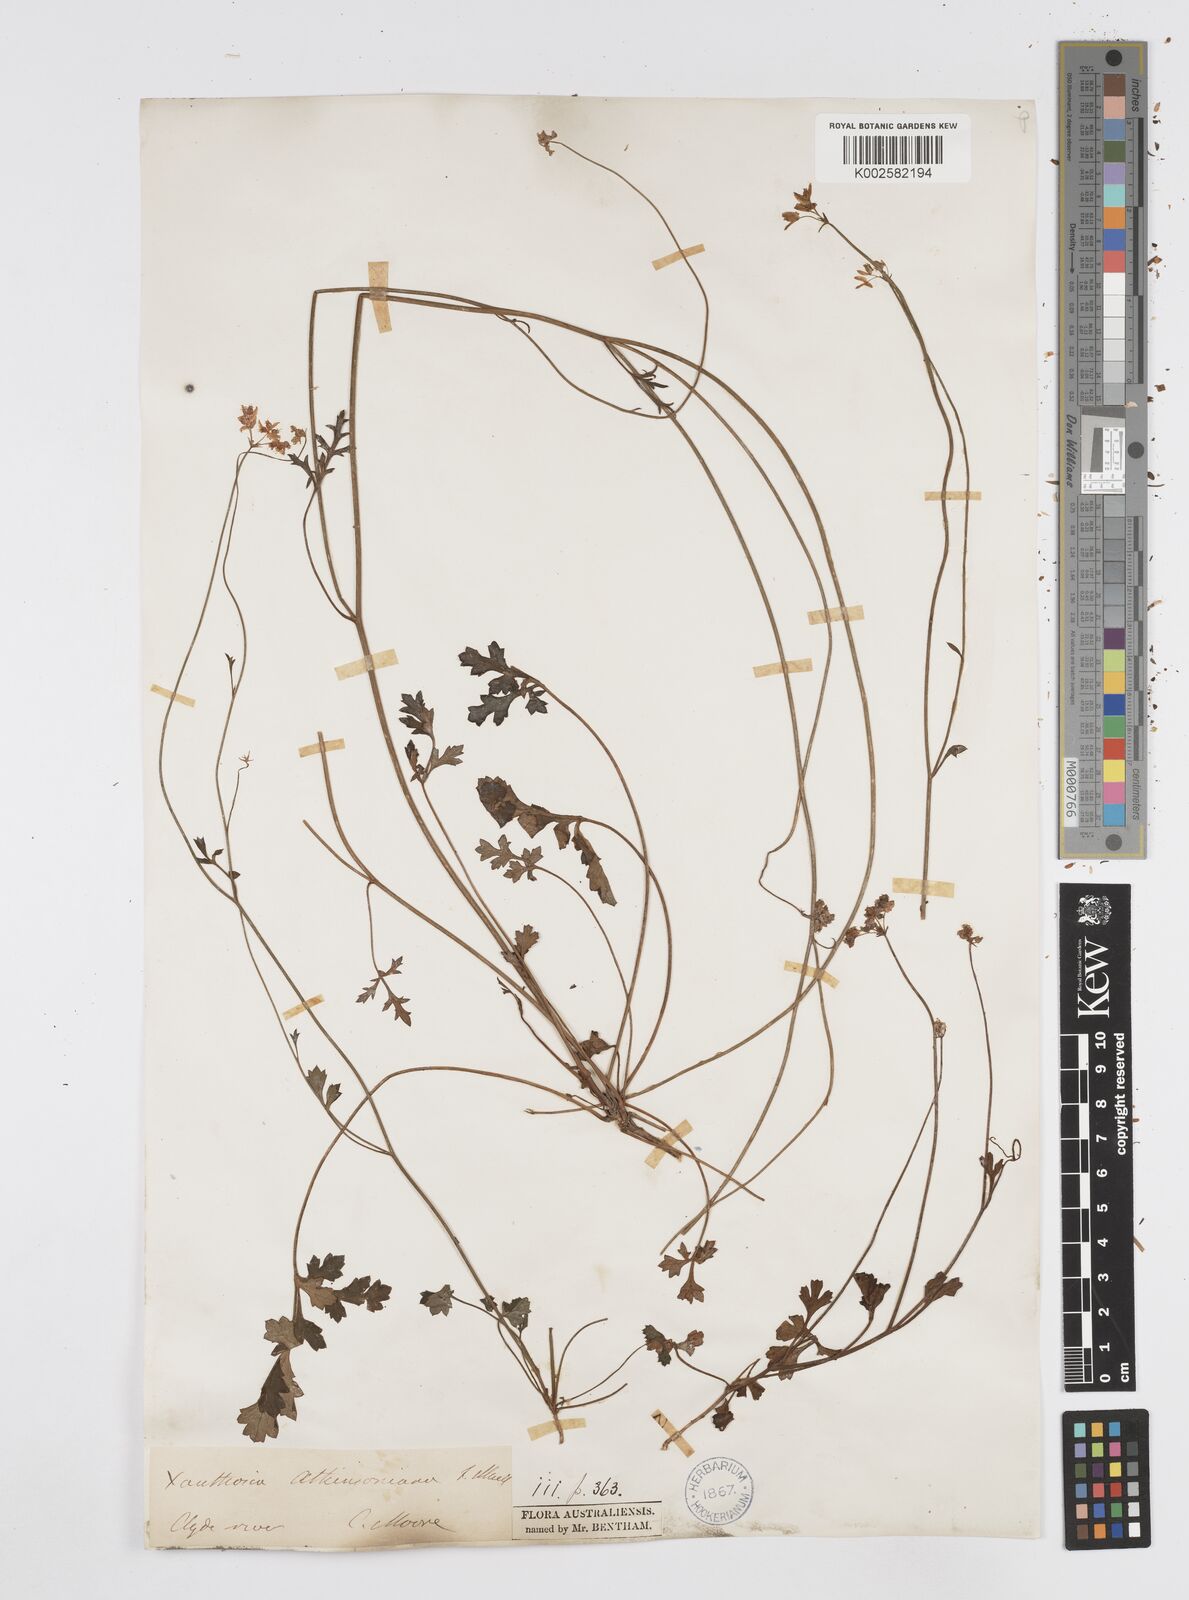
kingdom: Plantae
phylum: Tracheophyta
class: Magnoliopsida
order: Apiales
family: Apiaceae
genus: Xanthosia
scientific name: Xanthosia atkinsoniana
